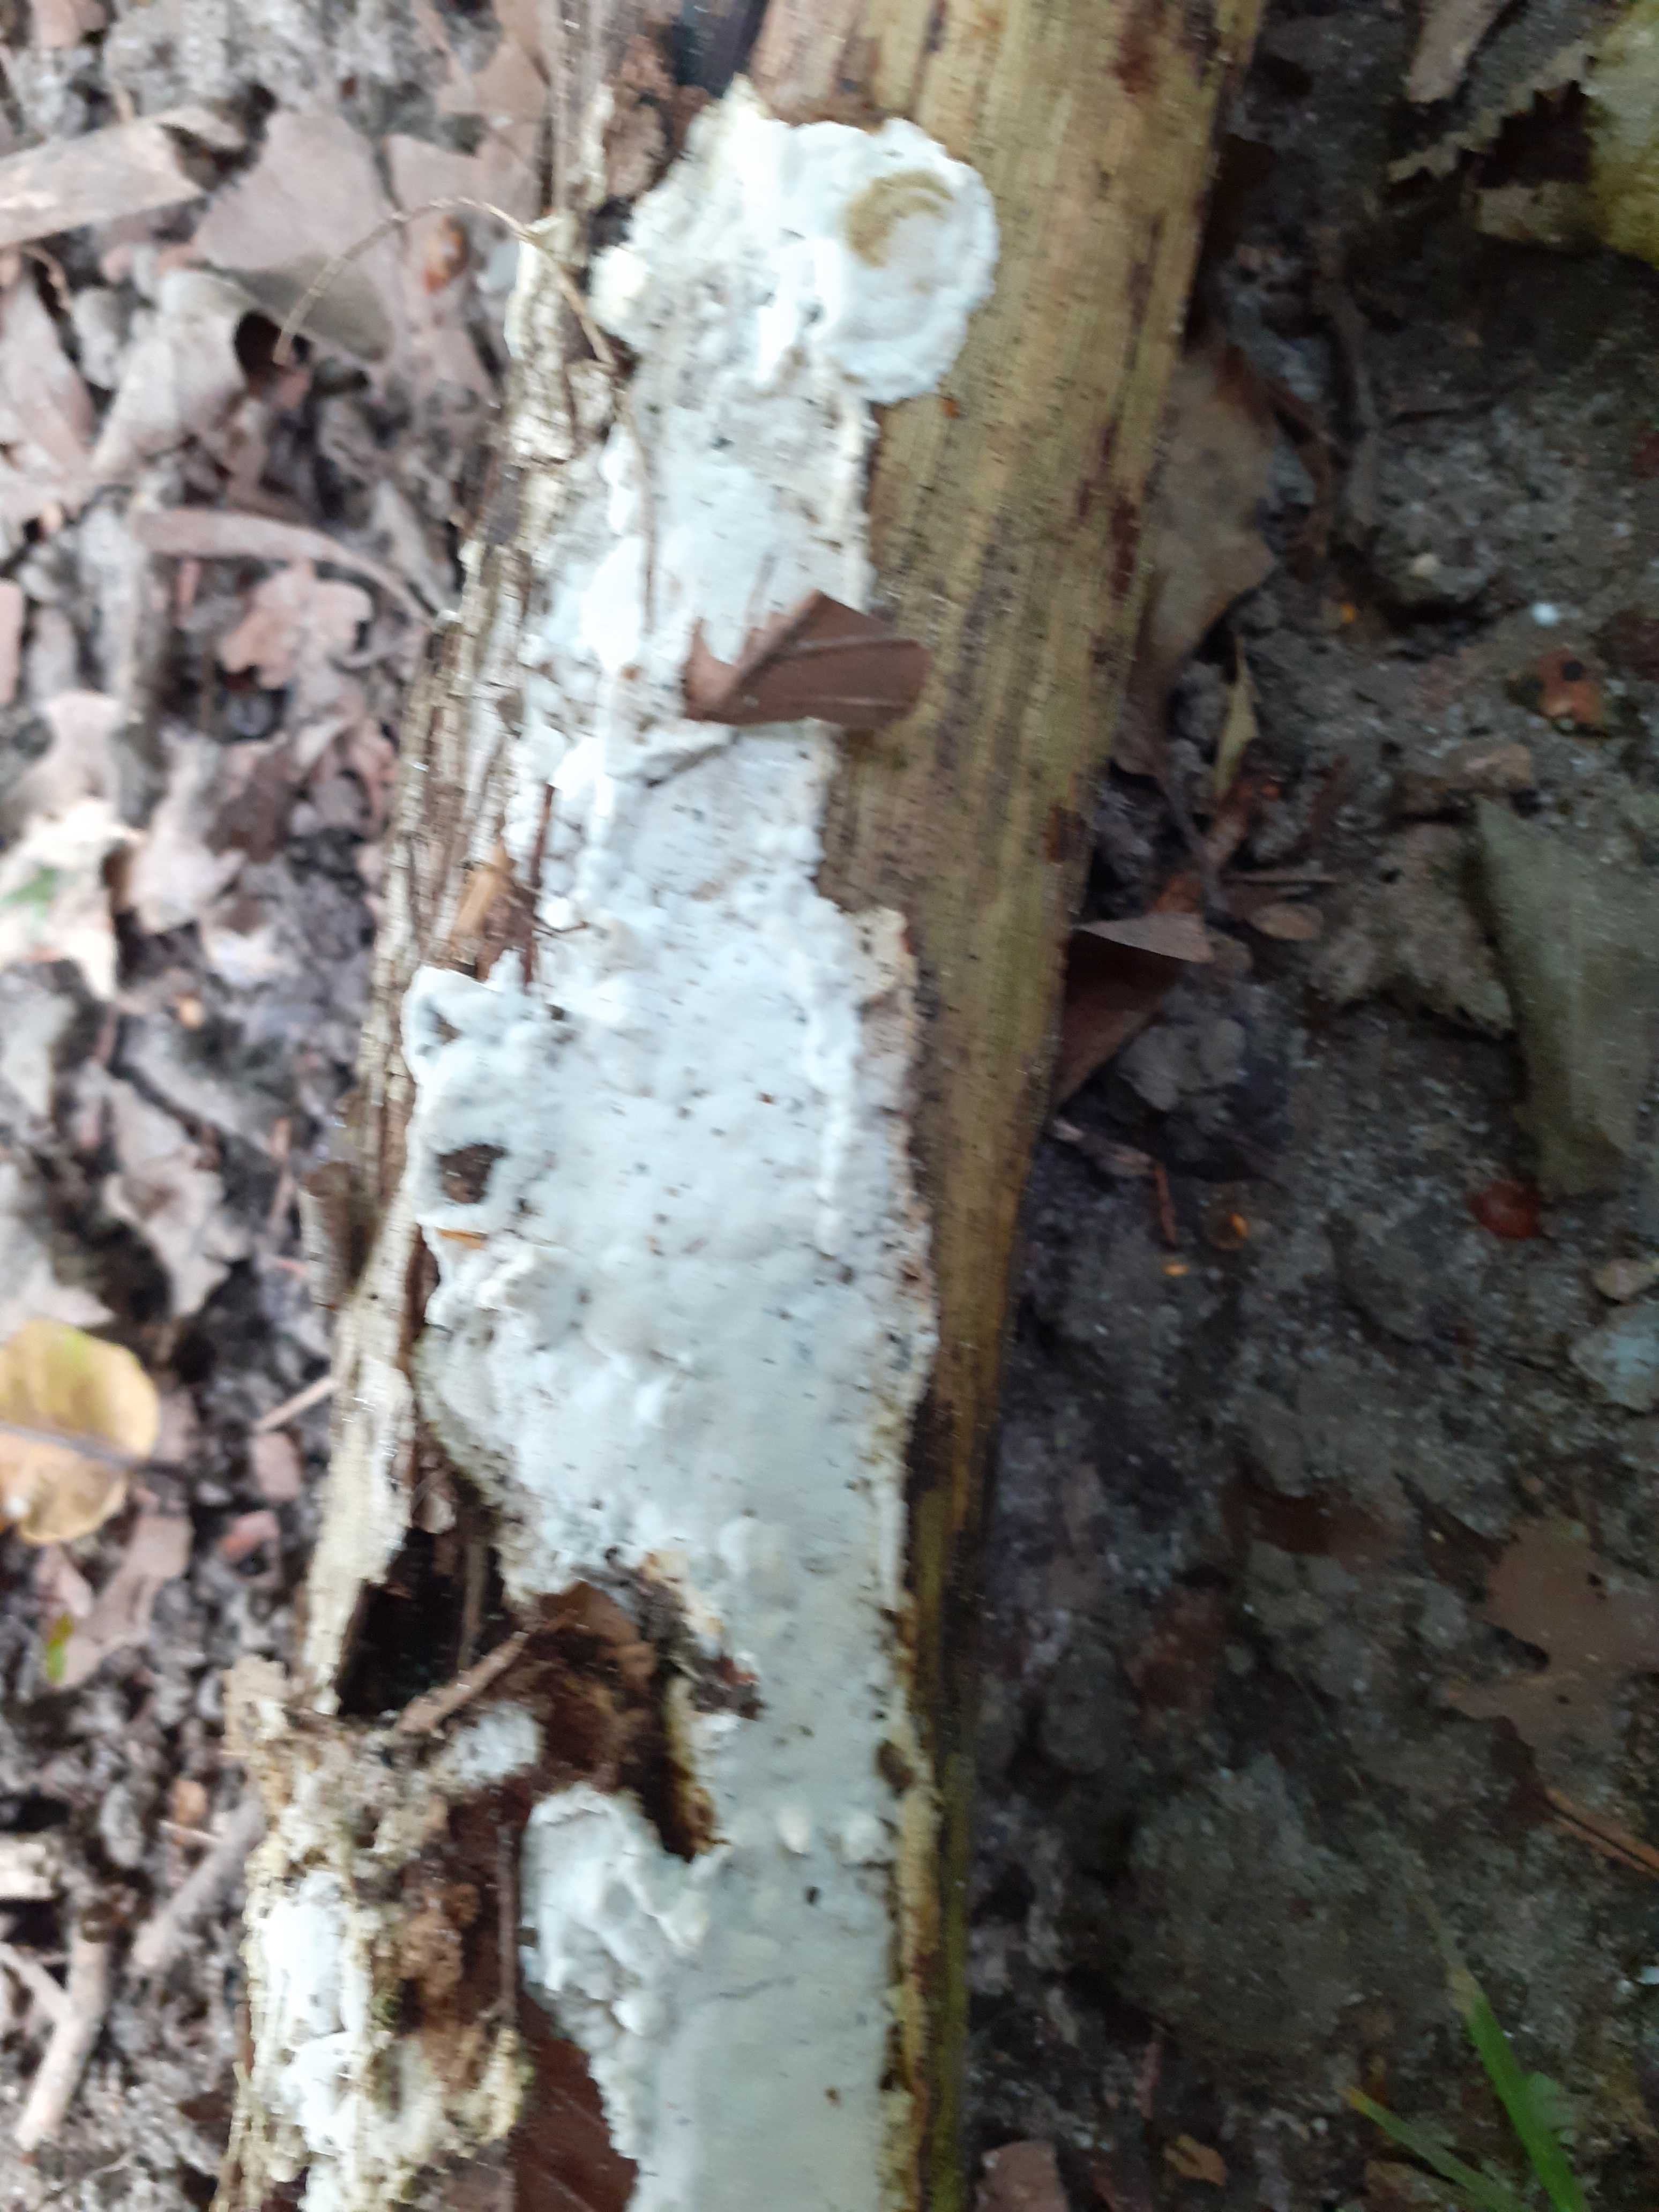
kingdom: Fungi
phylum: Basidiomycota
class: Agaricomycetes
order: Polyporales
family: Incrustoporiaceae
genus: Skeletocutis
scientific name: Skeletocutis nemoralis
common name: stor krystalporesvamp
